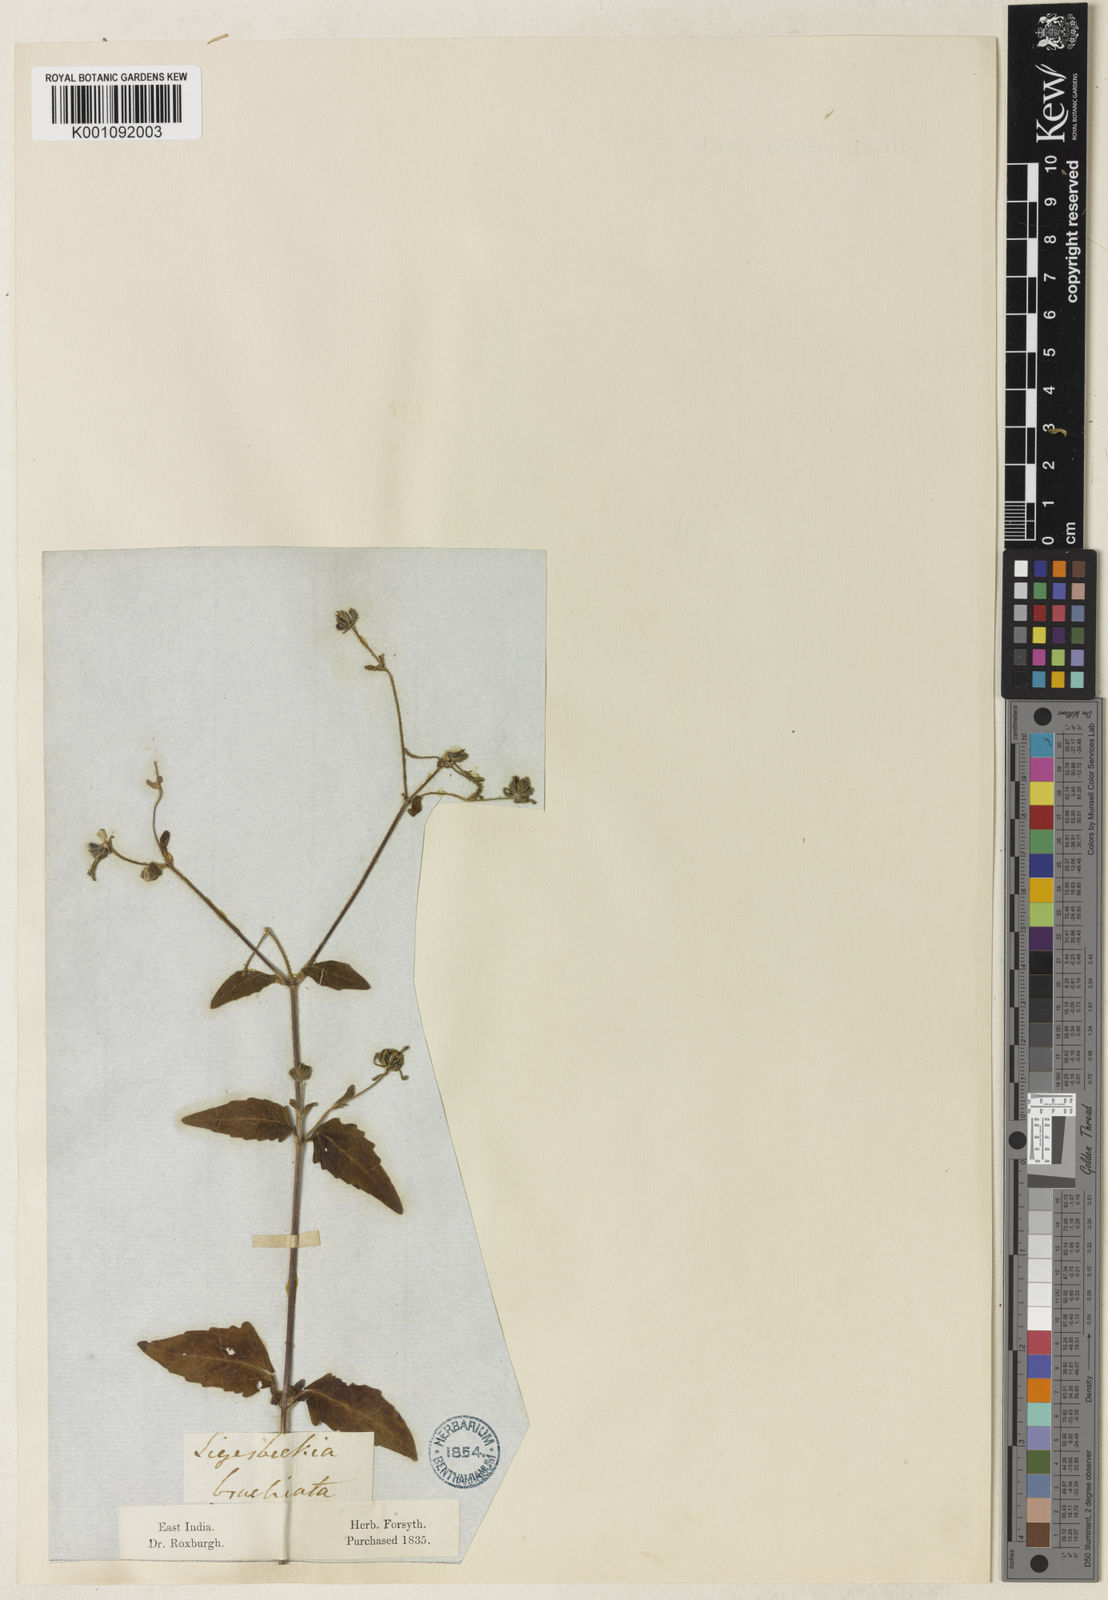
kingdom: Plantae
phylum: Tracheophyta
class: Magnoliopsida
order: Asterales
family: Asteraceae
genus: Sigesbeckia
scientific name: Sigesbeckia orientalis
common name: Eastern st paul's-wort
